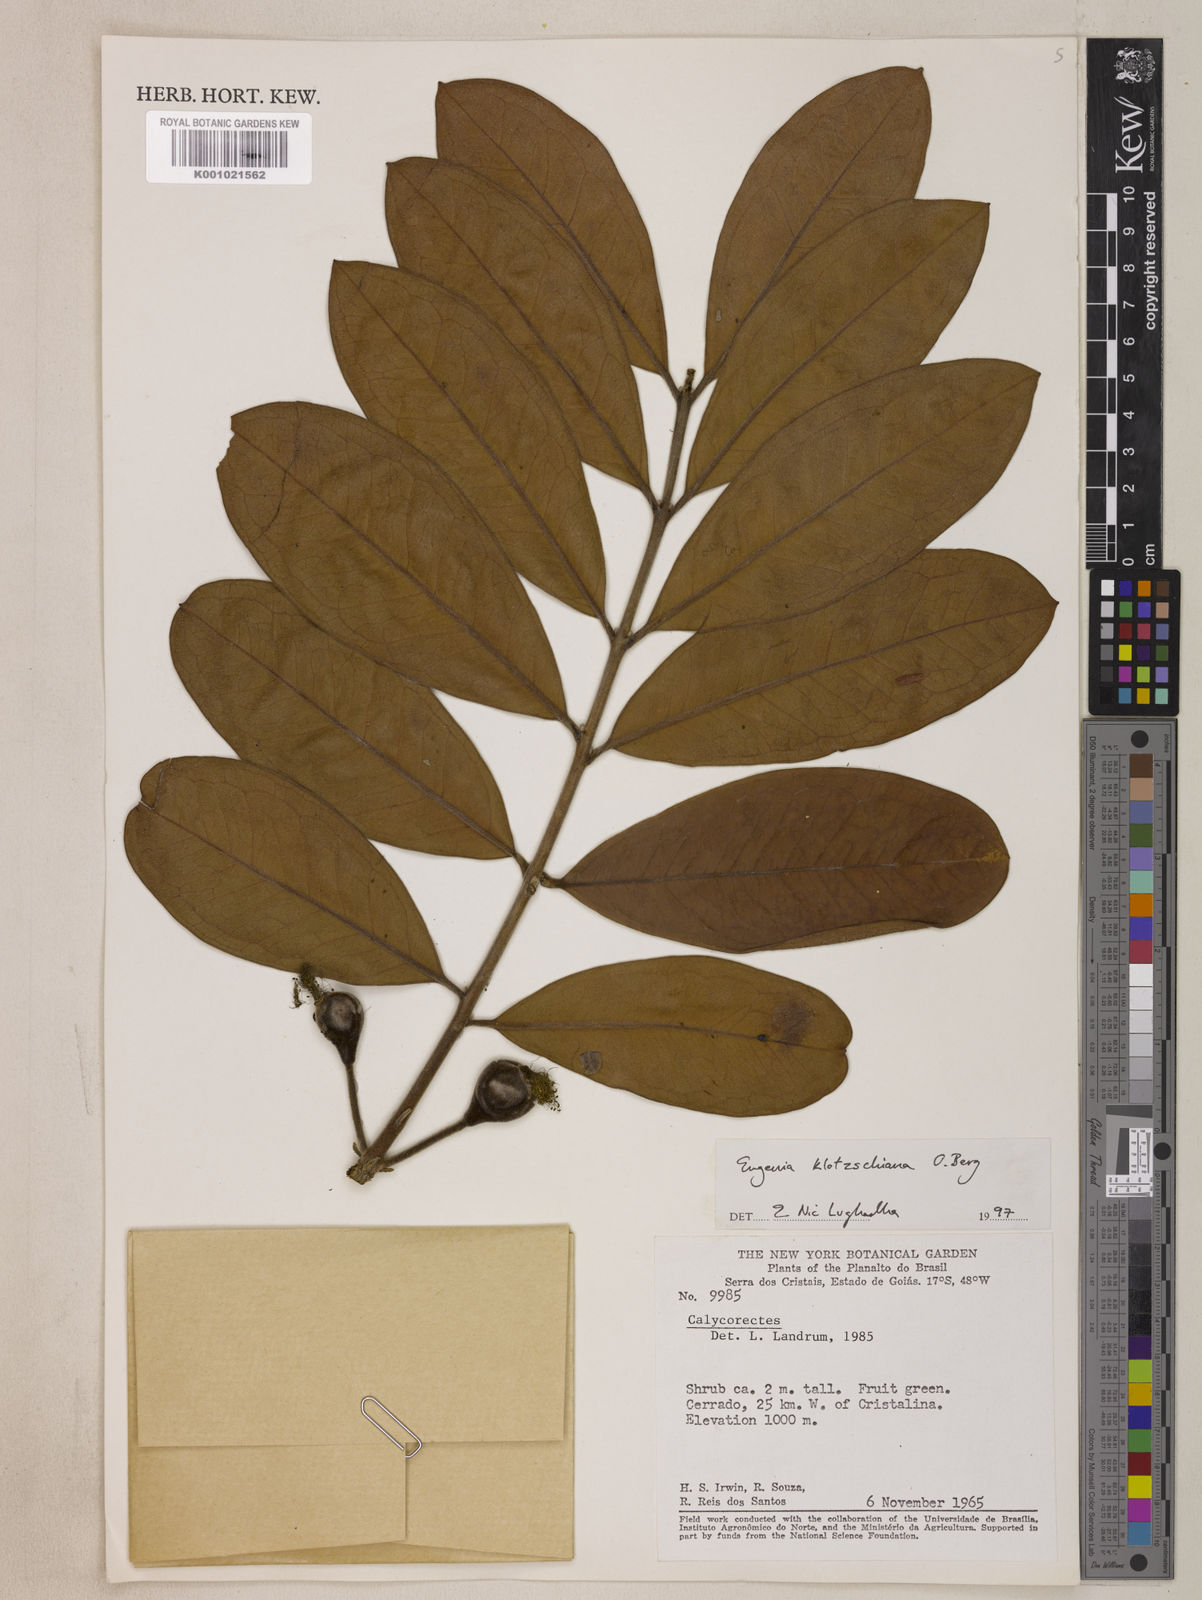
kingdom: Plantae
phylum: Tracheophyta
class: Magnoliopsida
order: Myrtales
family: Myrtaceae
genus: Eugenia
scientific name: Eugenia klotzschiana
